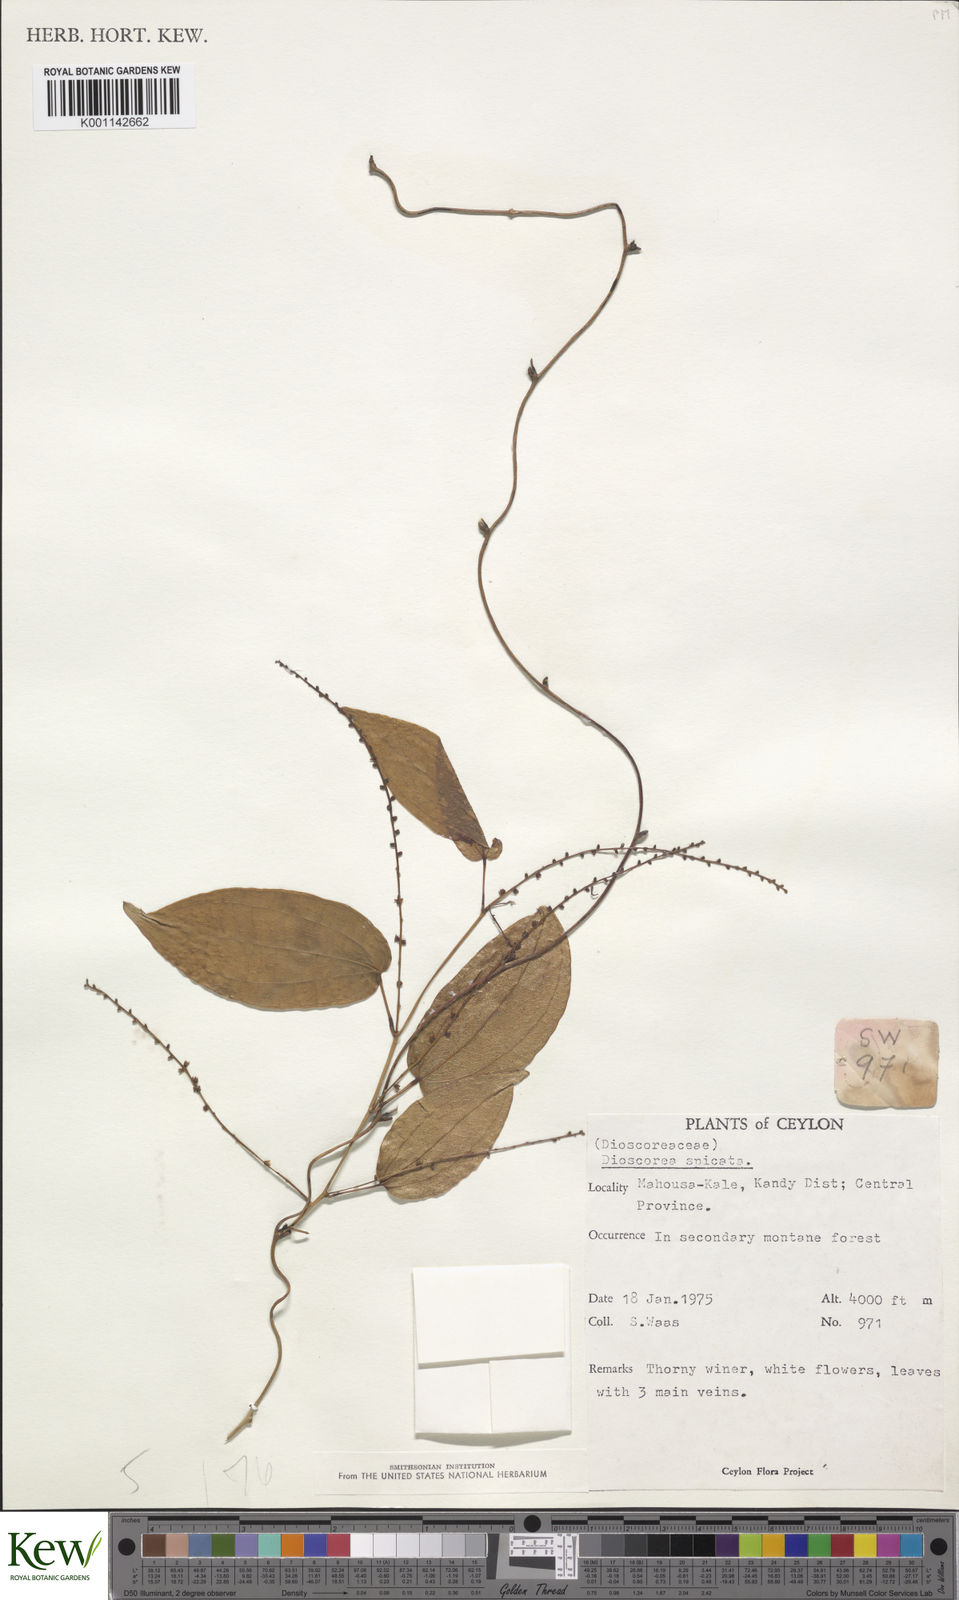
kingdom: Plantae
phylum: Tracheophyta
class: Liliopsida
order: Dioscoreales
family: Dioscoreaceae
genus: Dioscorea
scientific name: Dioscorea spicata
